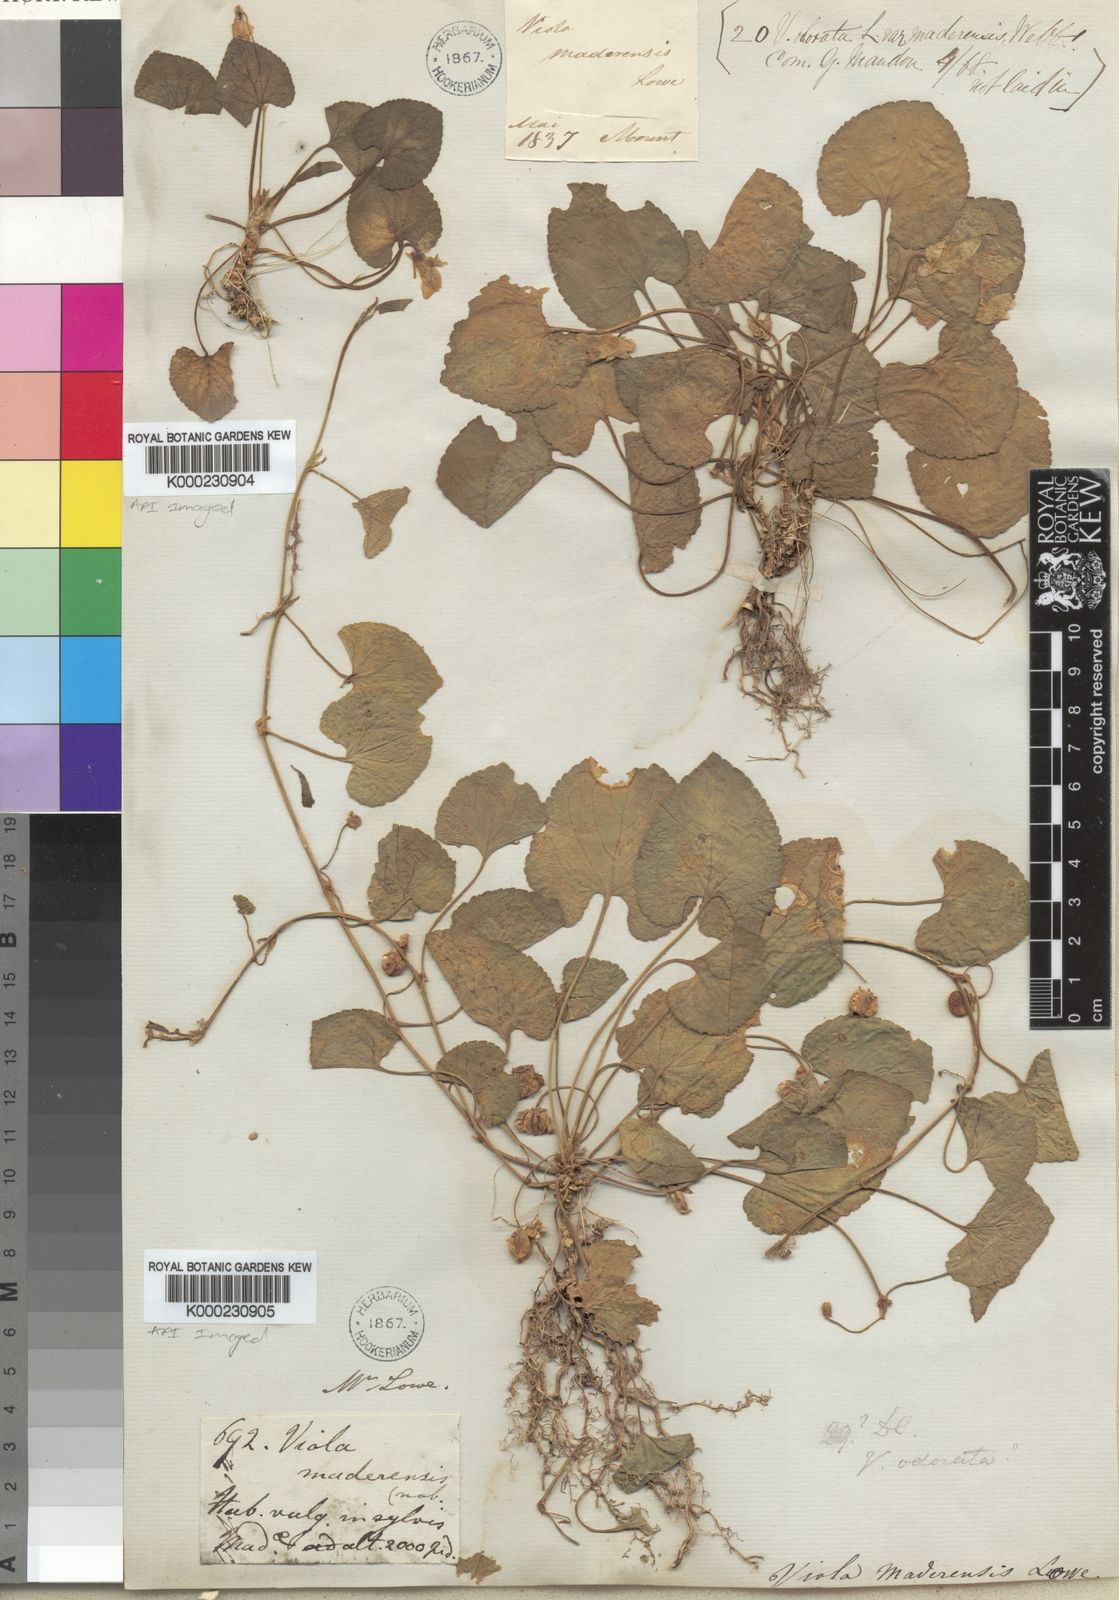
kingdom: Plantae
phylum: Tracheophyta
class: Magnoliopsida
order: Malpighiales
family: Violaceae
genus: Viola
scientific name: Viola odorata
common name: Sweet violet
